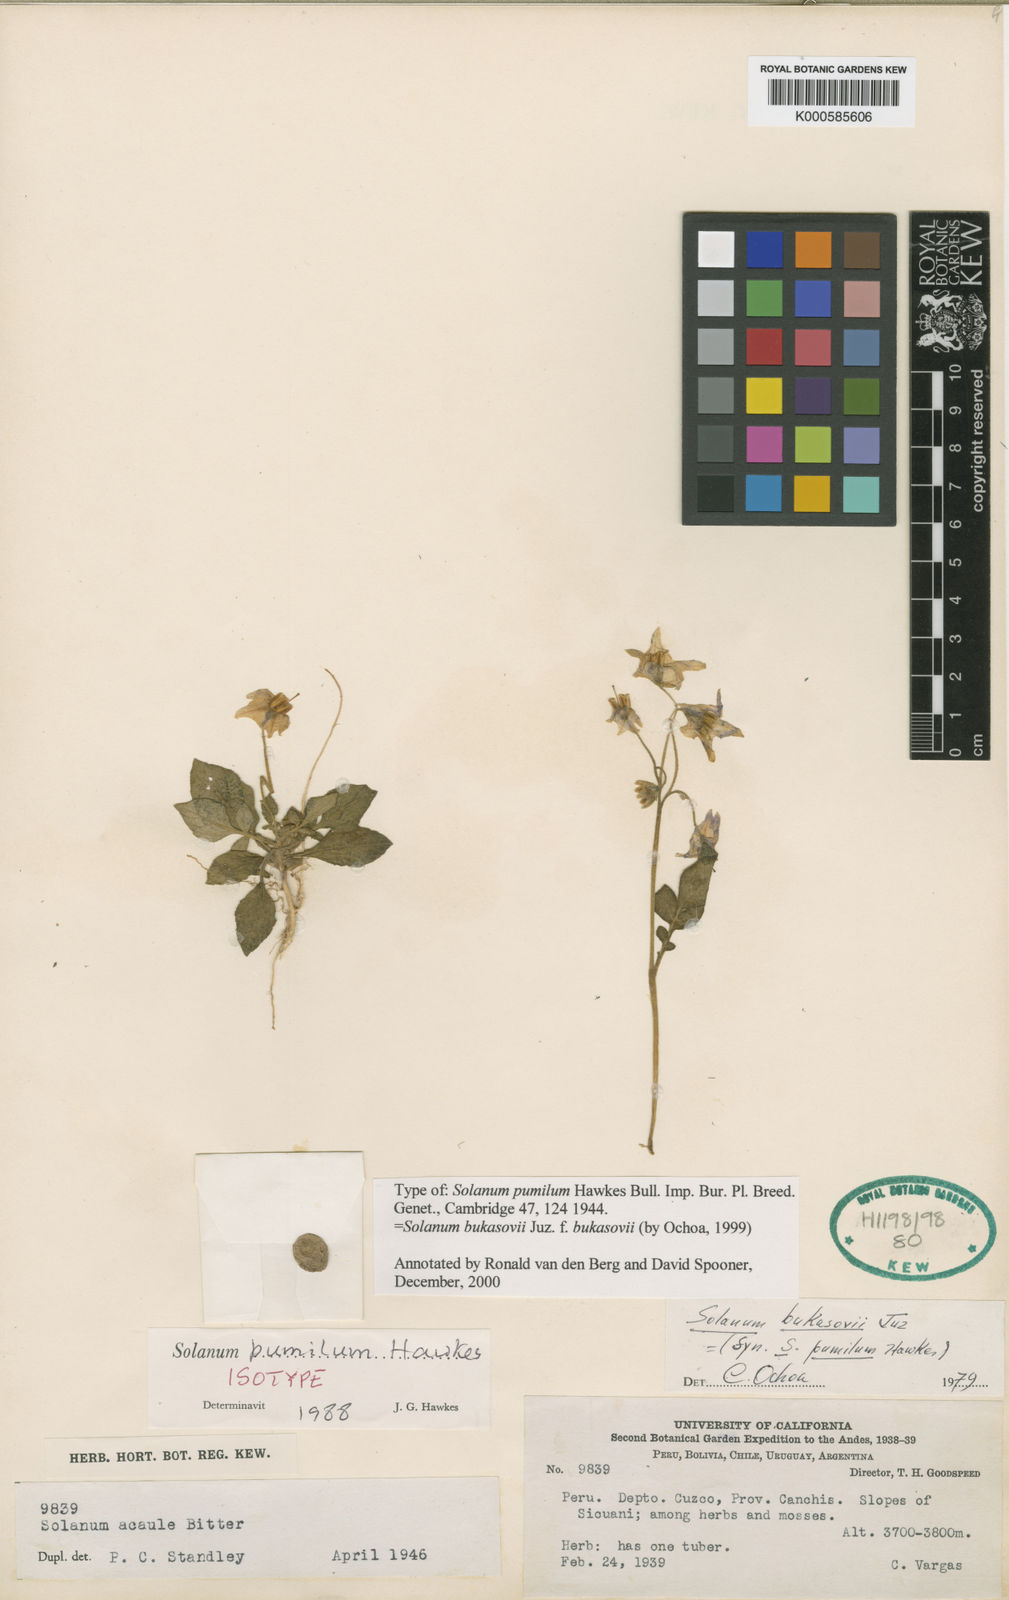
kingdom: Plantae
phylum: Tracheophyta
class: Magnoliopsida
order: Solanales
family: Solanaceae
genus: Solanum
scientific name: Solanum candolleanum
